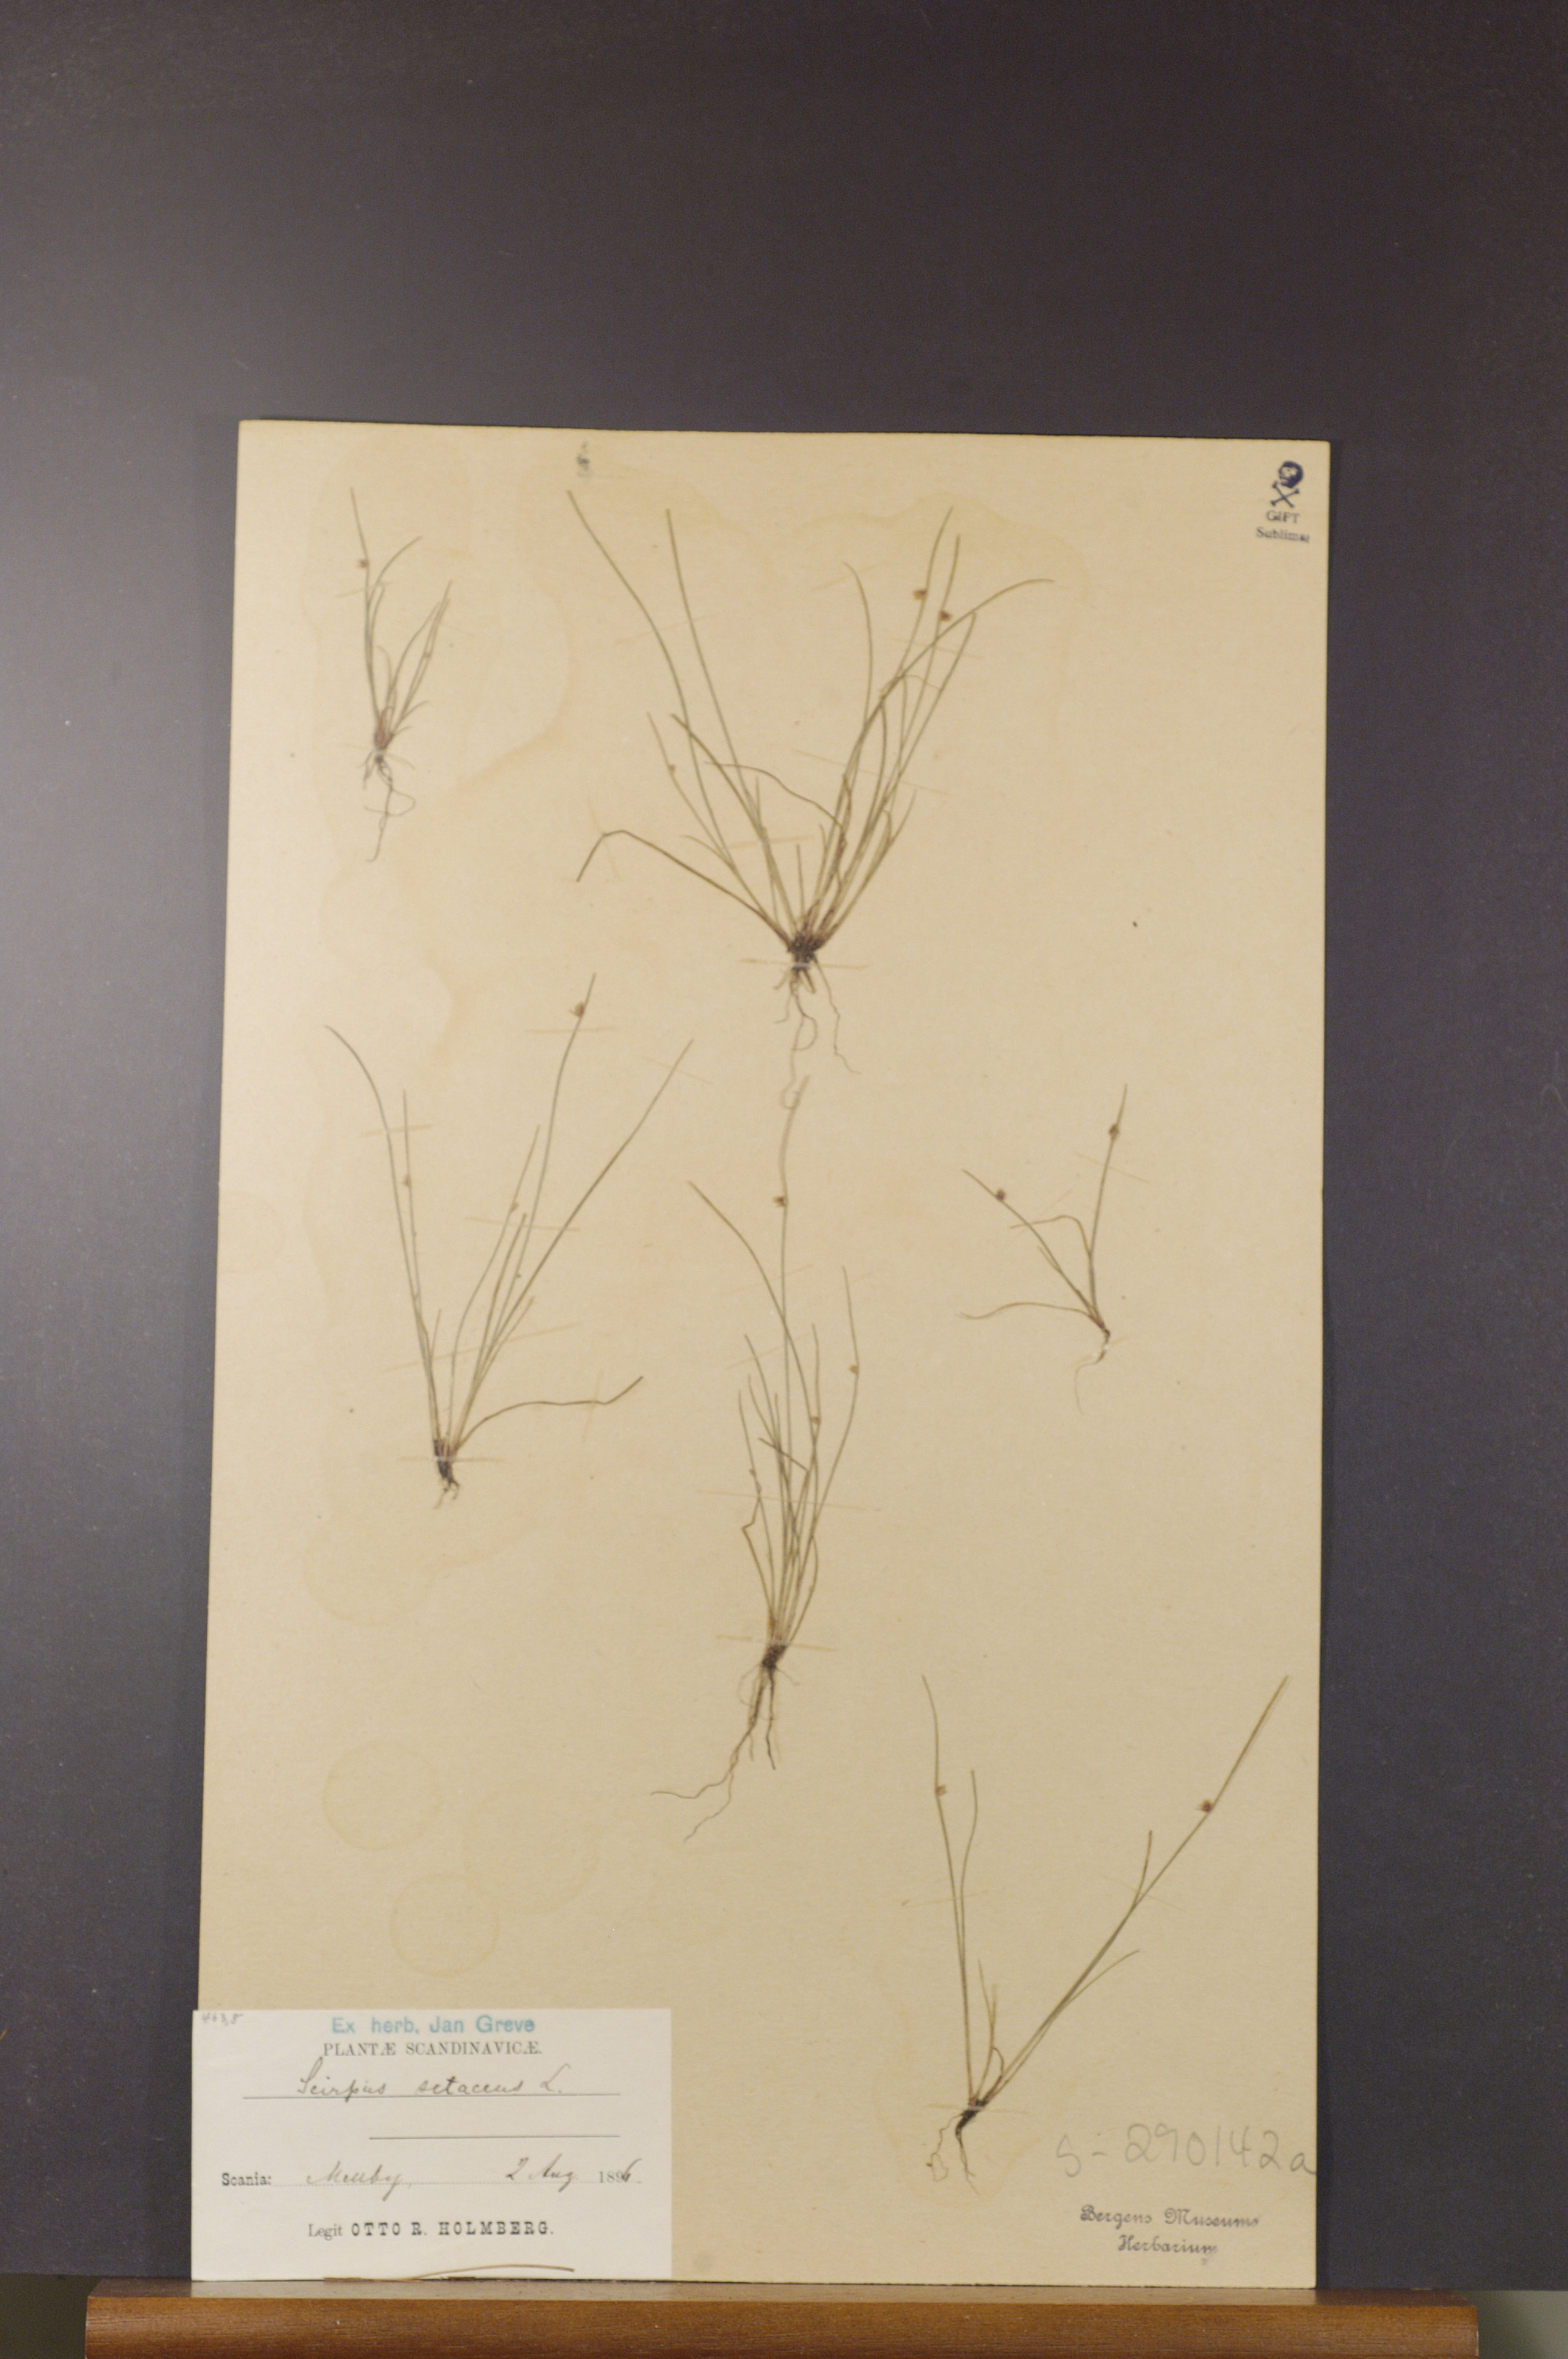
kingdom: Plantae
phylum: Tracheophyta
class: Liliopsida
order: Poales
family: Cyperaceae
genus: Isolepis
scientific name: Isolepis setacea
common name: Bristle club-rush
